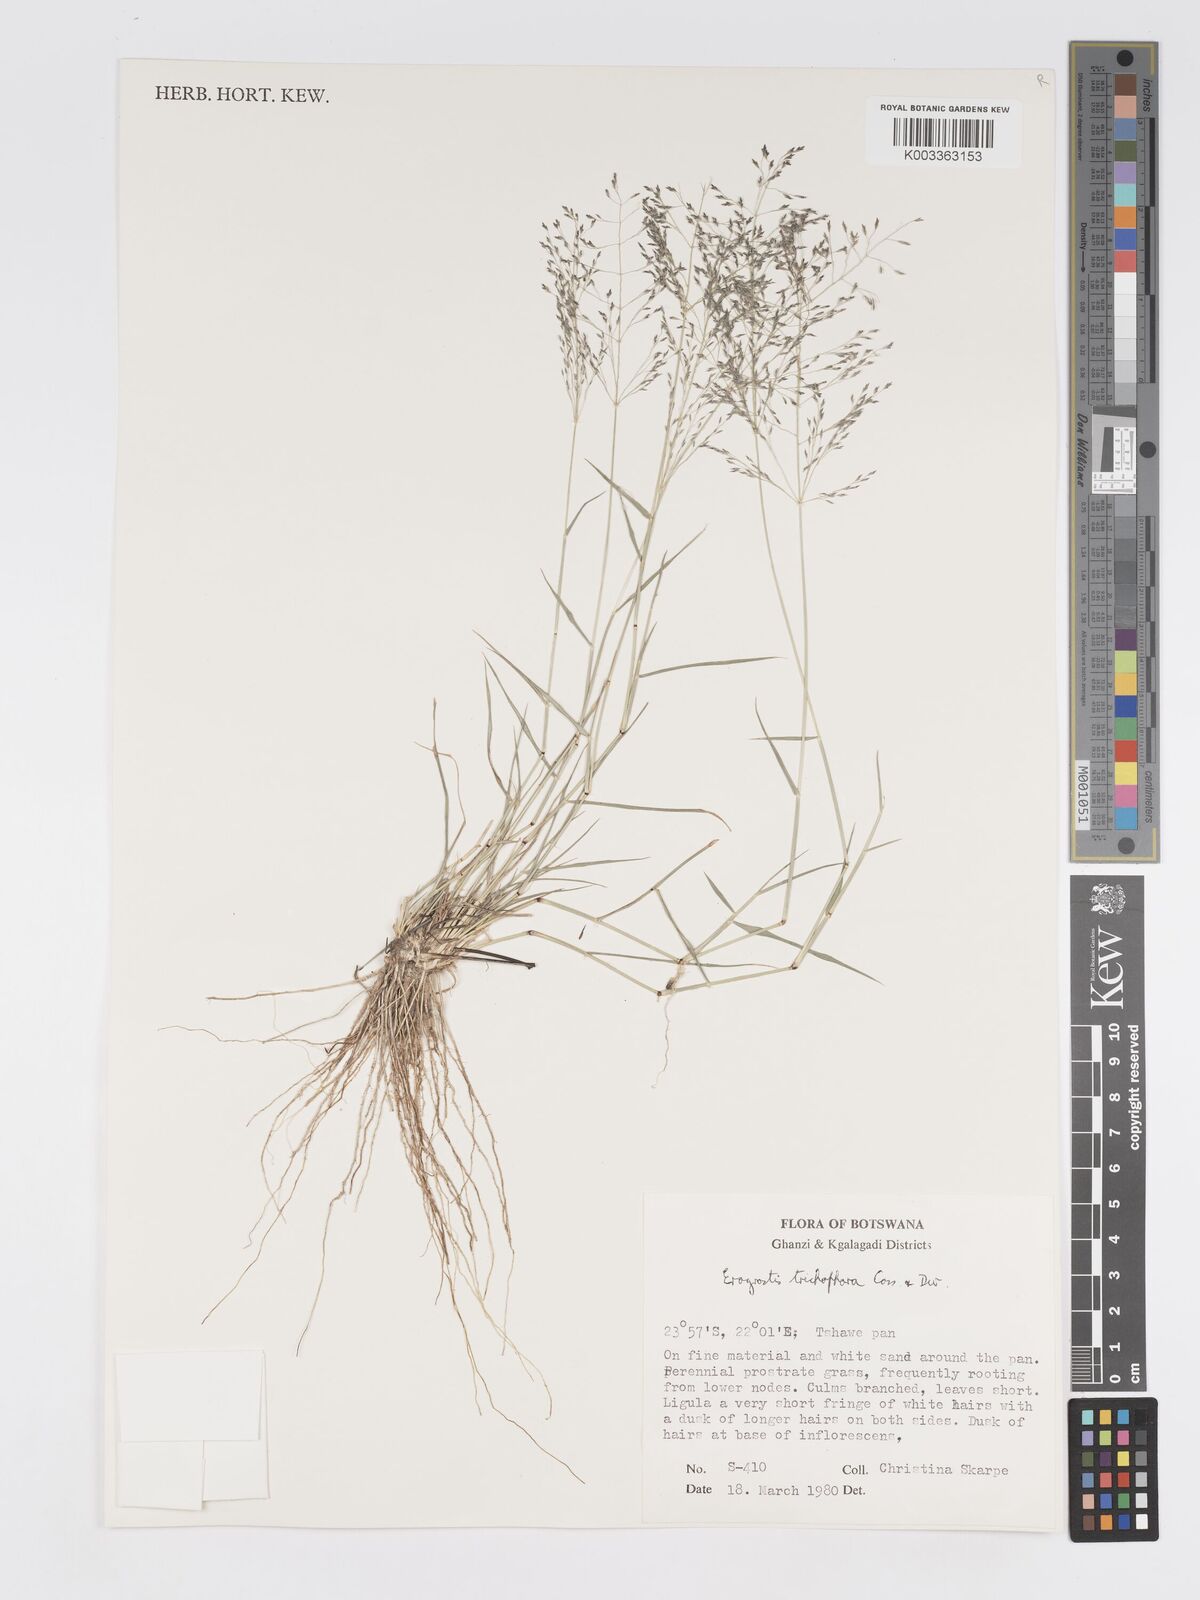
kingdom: Plantae
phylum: Tracheophyta
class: Liliopsida
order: Poales
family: Poaceae
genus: Eragrostis
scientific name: Eragrostis cylindriflora
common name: Cylinderflower lovegrass
